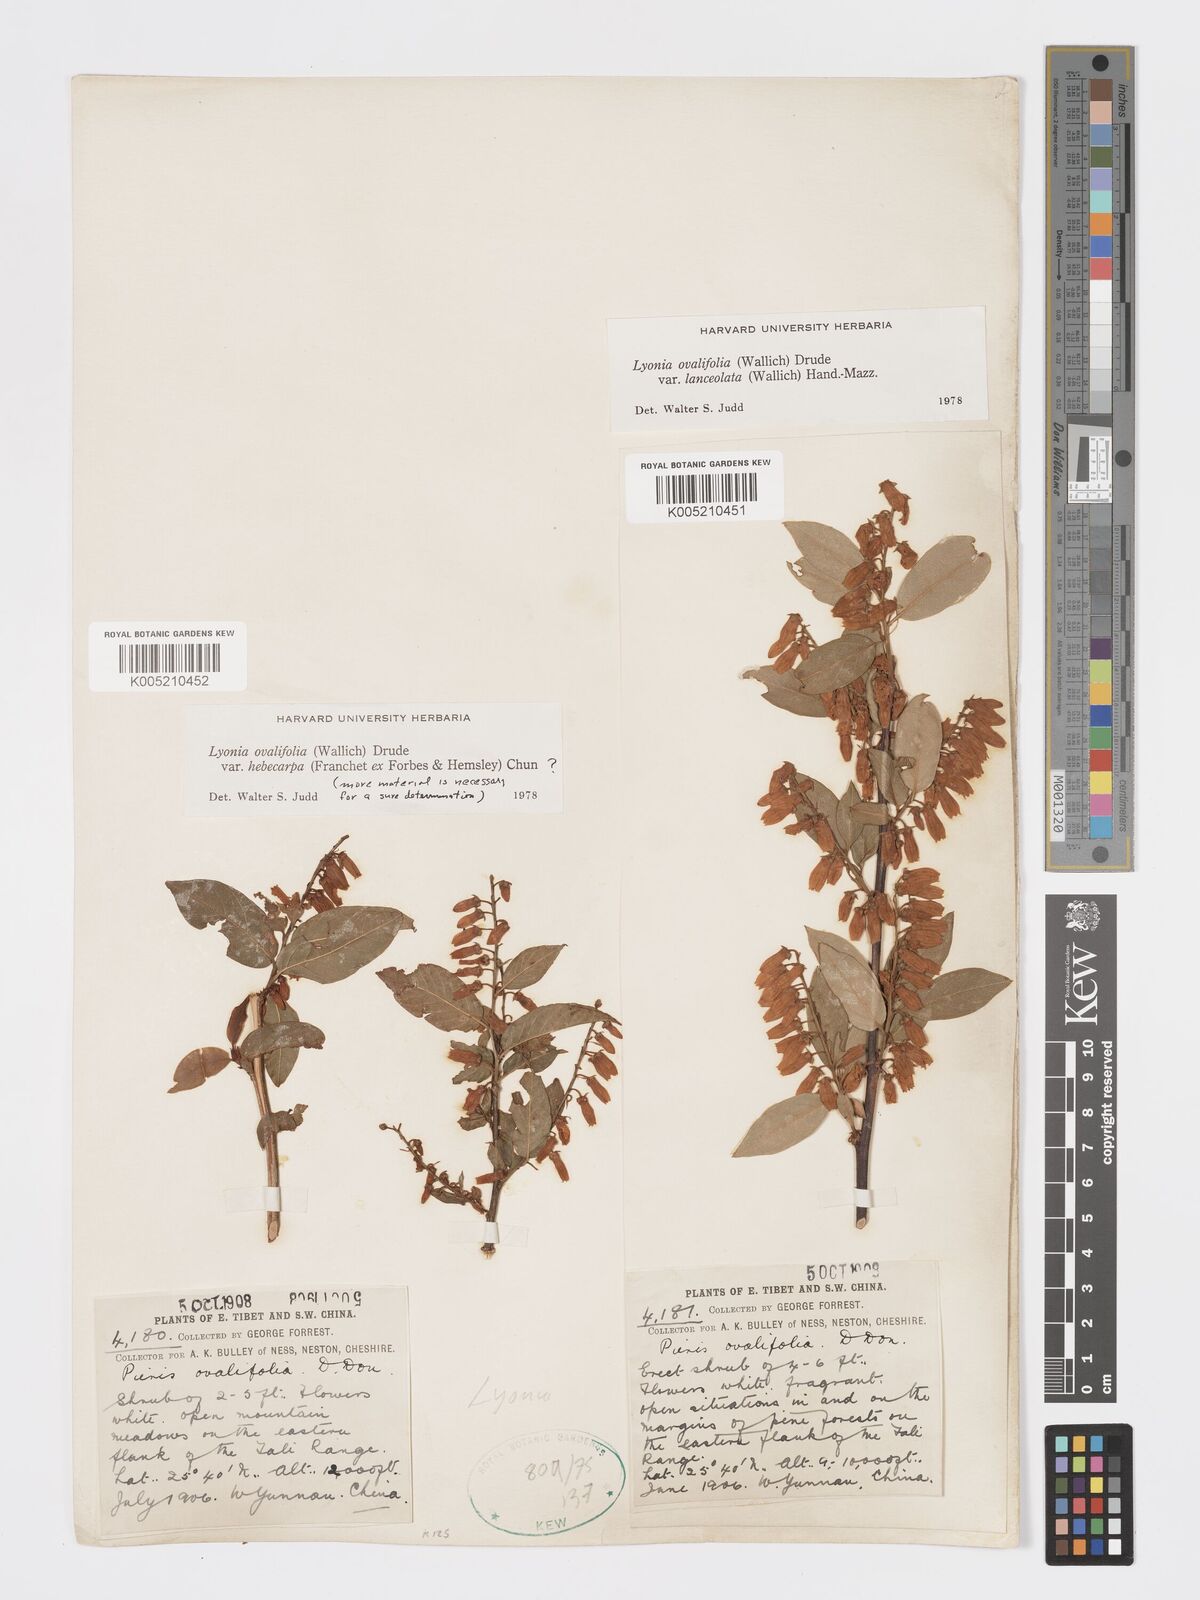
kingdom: Plantae
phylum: Tracheophyta
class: Magnoliopsida
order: Ericales
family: Ericaceae
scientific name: Ericaceae
